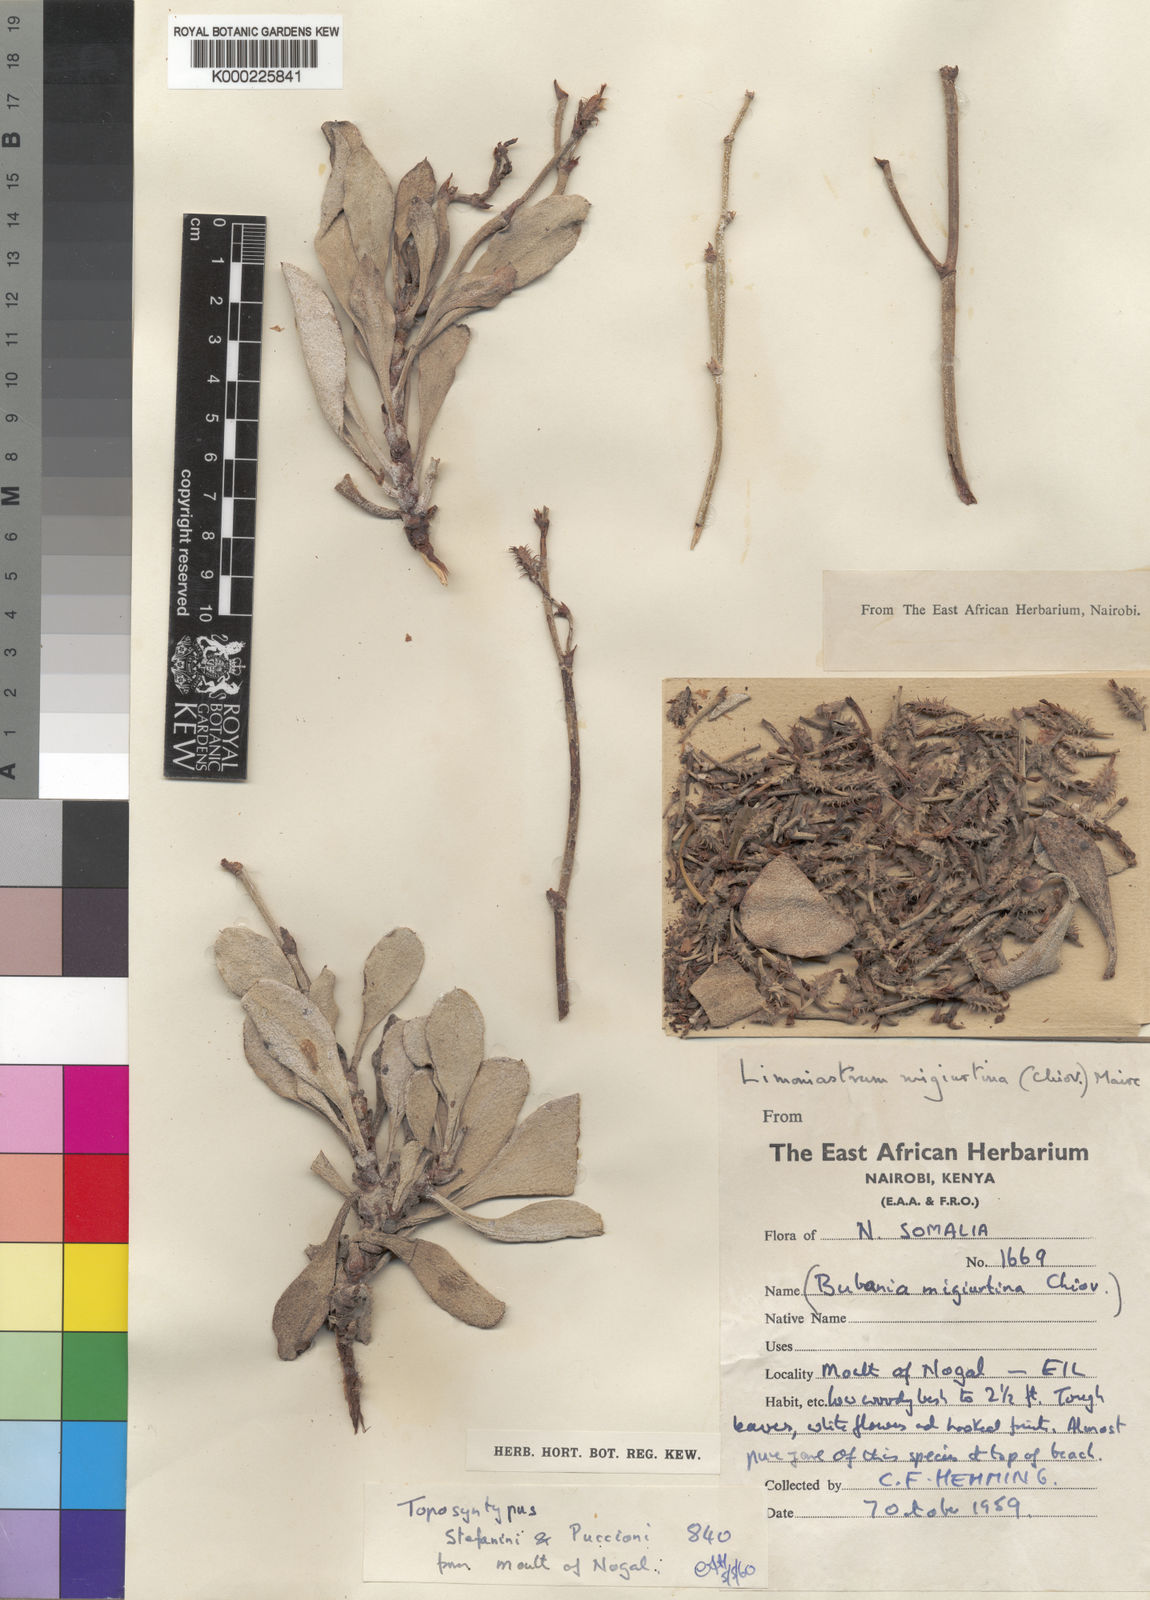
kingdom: Plantae
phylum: Tracheophyta
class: Magnoliopsida
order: Caryophyllales
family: Plumbaginaceae
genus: Ceratolimon
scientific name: Ceratolimon migiurtinum
